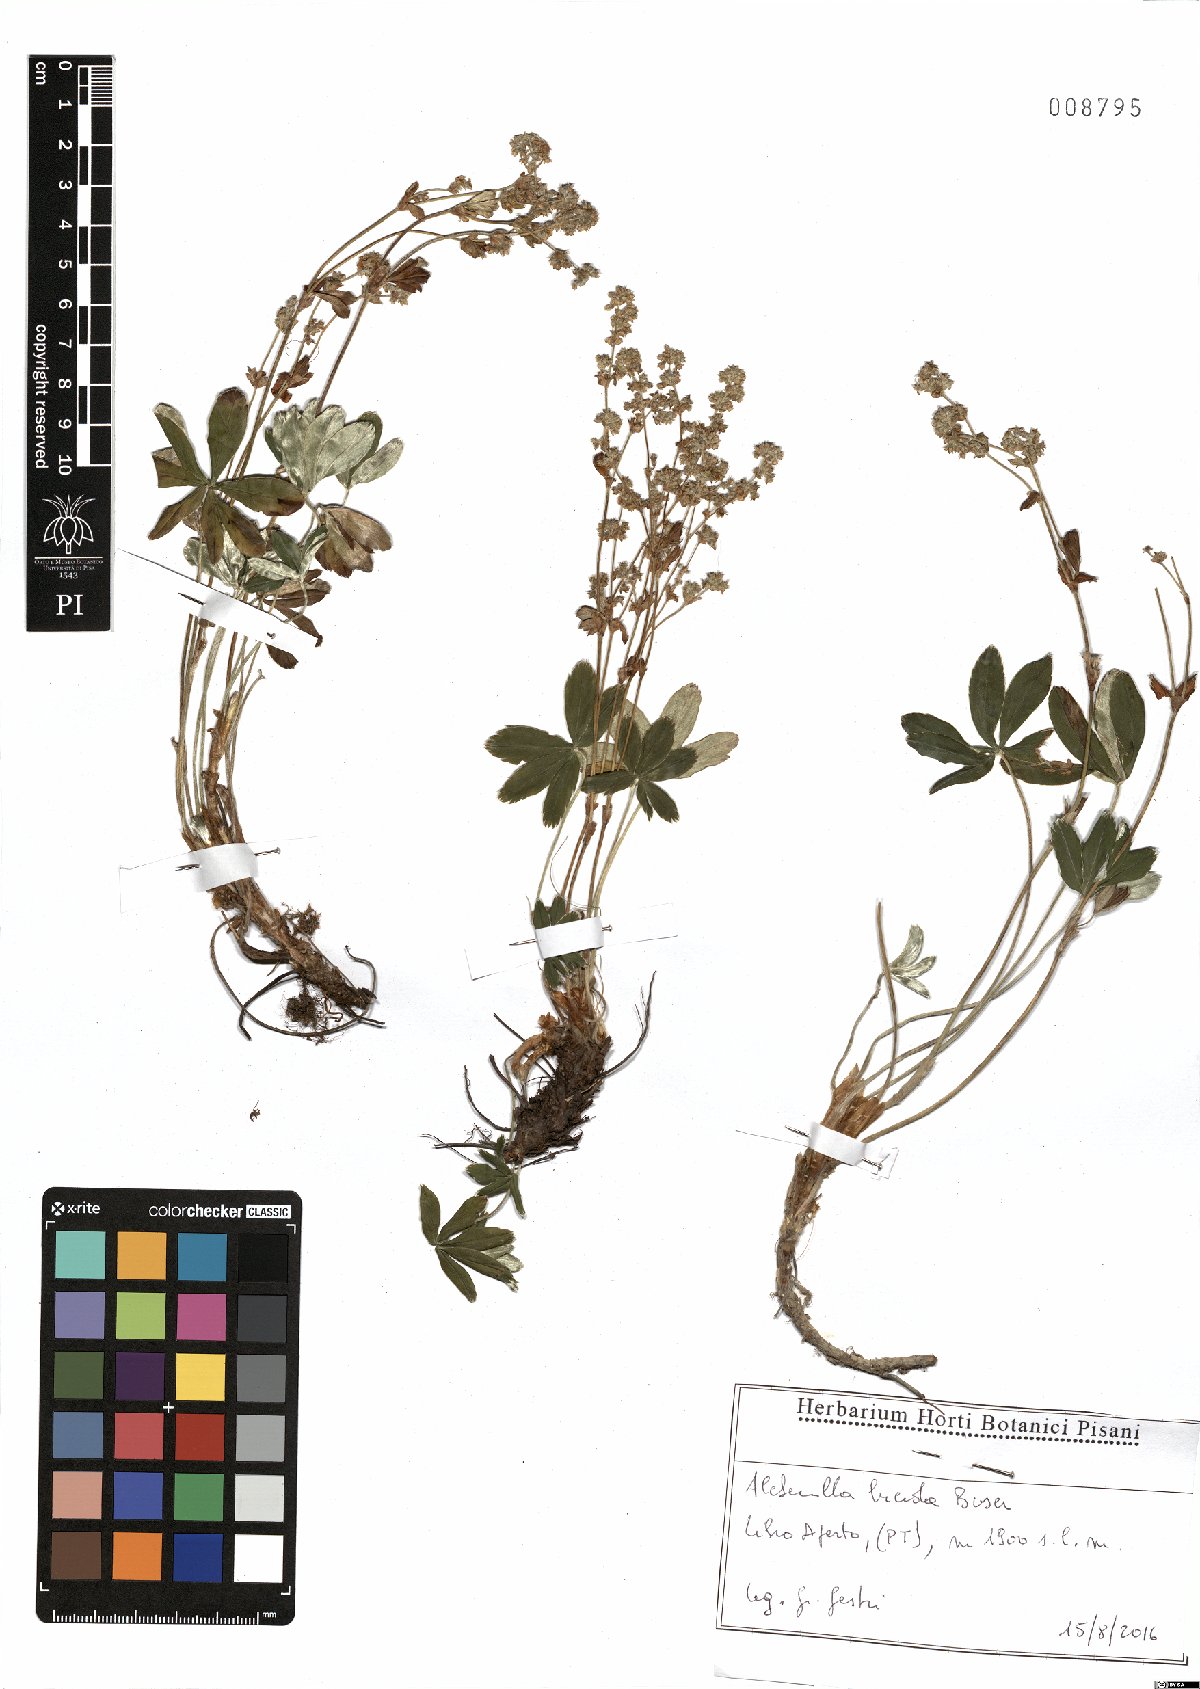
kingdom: Plantae
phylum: Tracheophyta
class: Magnoliopsida
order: Rosales
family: Rosaceae
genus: Alchemilla
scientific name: Alchemilla lucida
